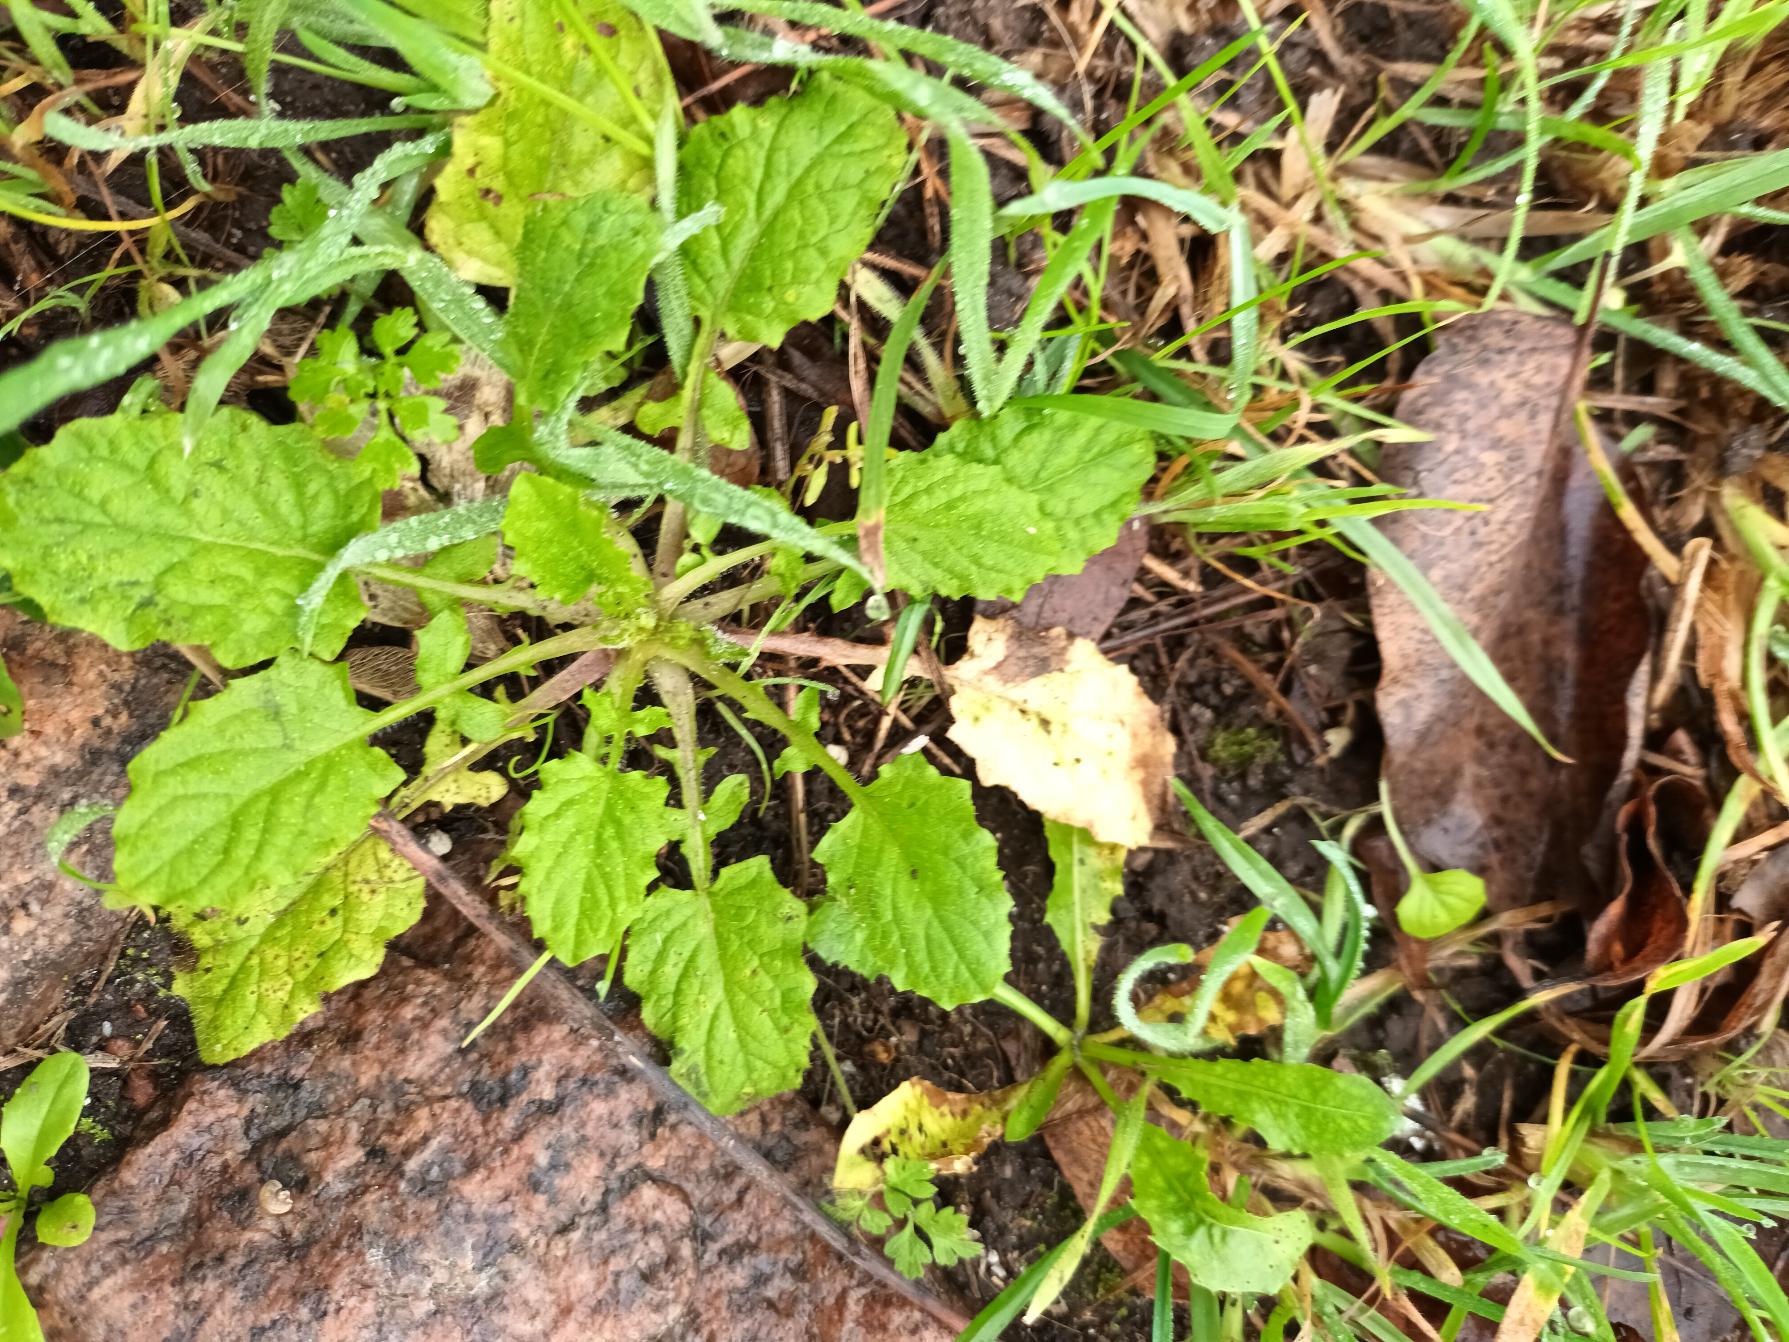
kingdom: Plantae
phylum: Tracheophyta
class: Magnoliopsida
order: Asterales
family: Asteraceae
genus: Lapsana
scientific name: Lapsana communis
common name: Haremad
